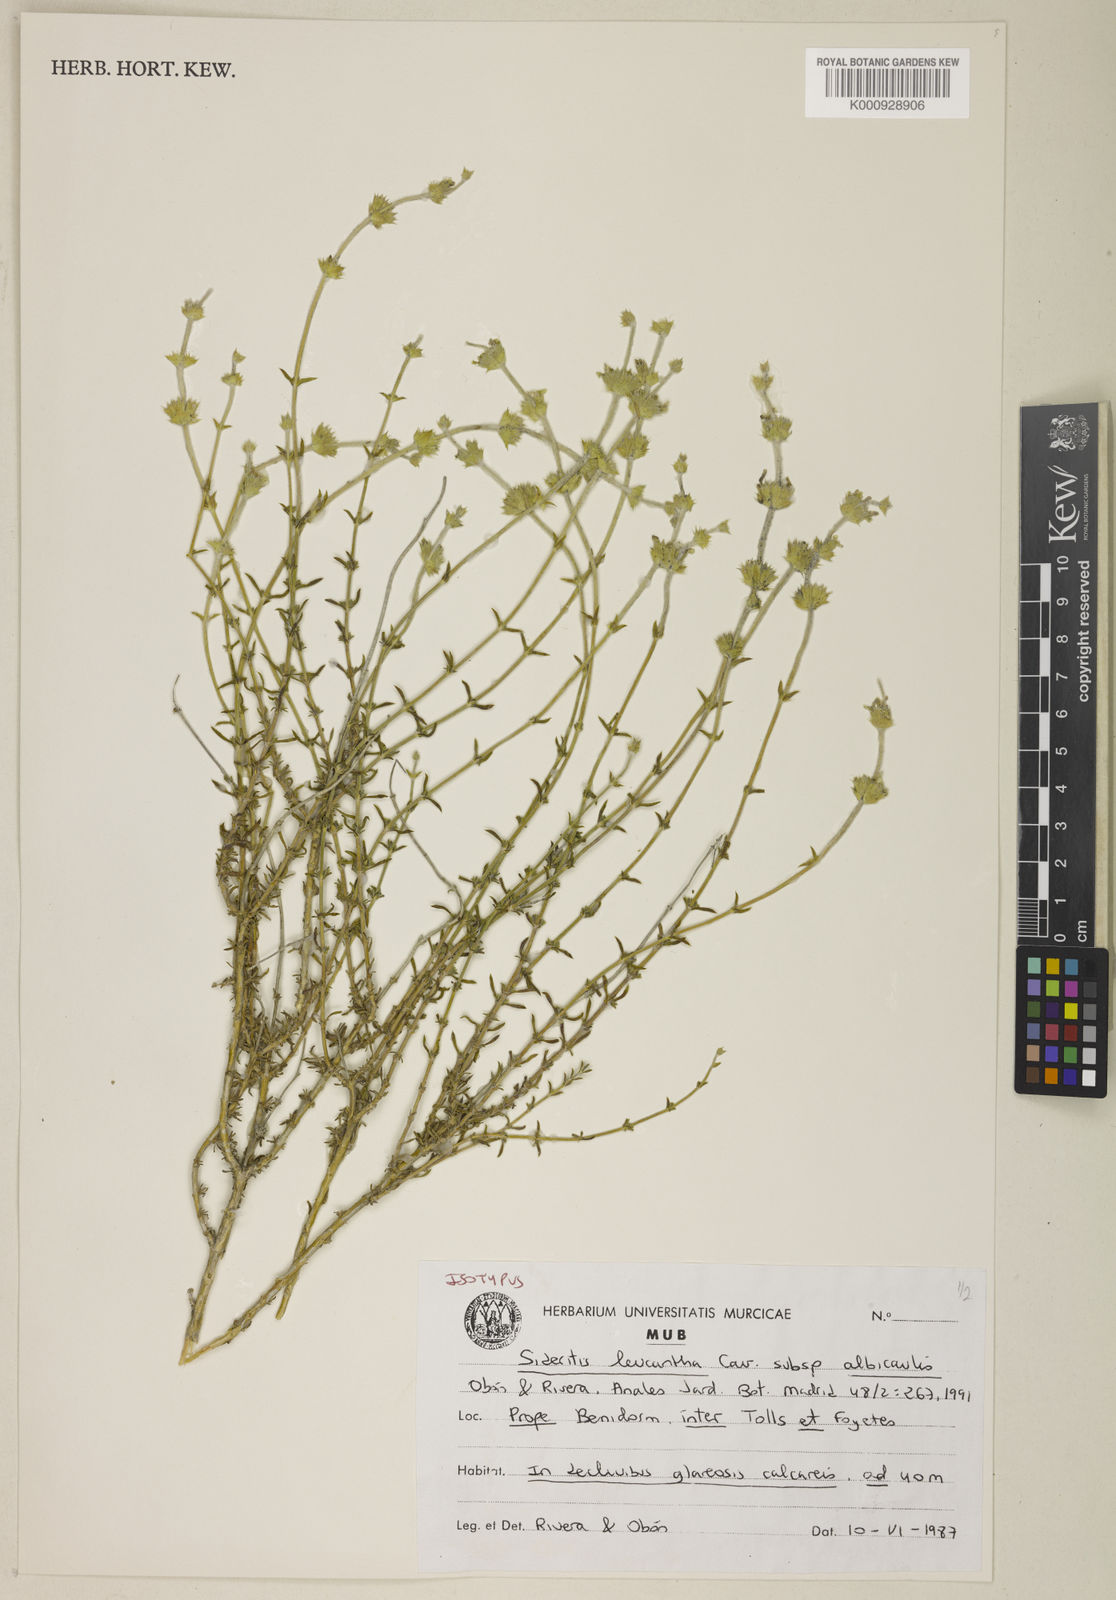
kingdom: Plantae
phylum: Tracheophyta
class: Magnoliopsida
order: Lamiales
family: Lamiaceae
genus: Sideritis
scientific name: Sideritis leucantha
